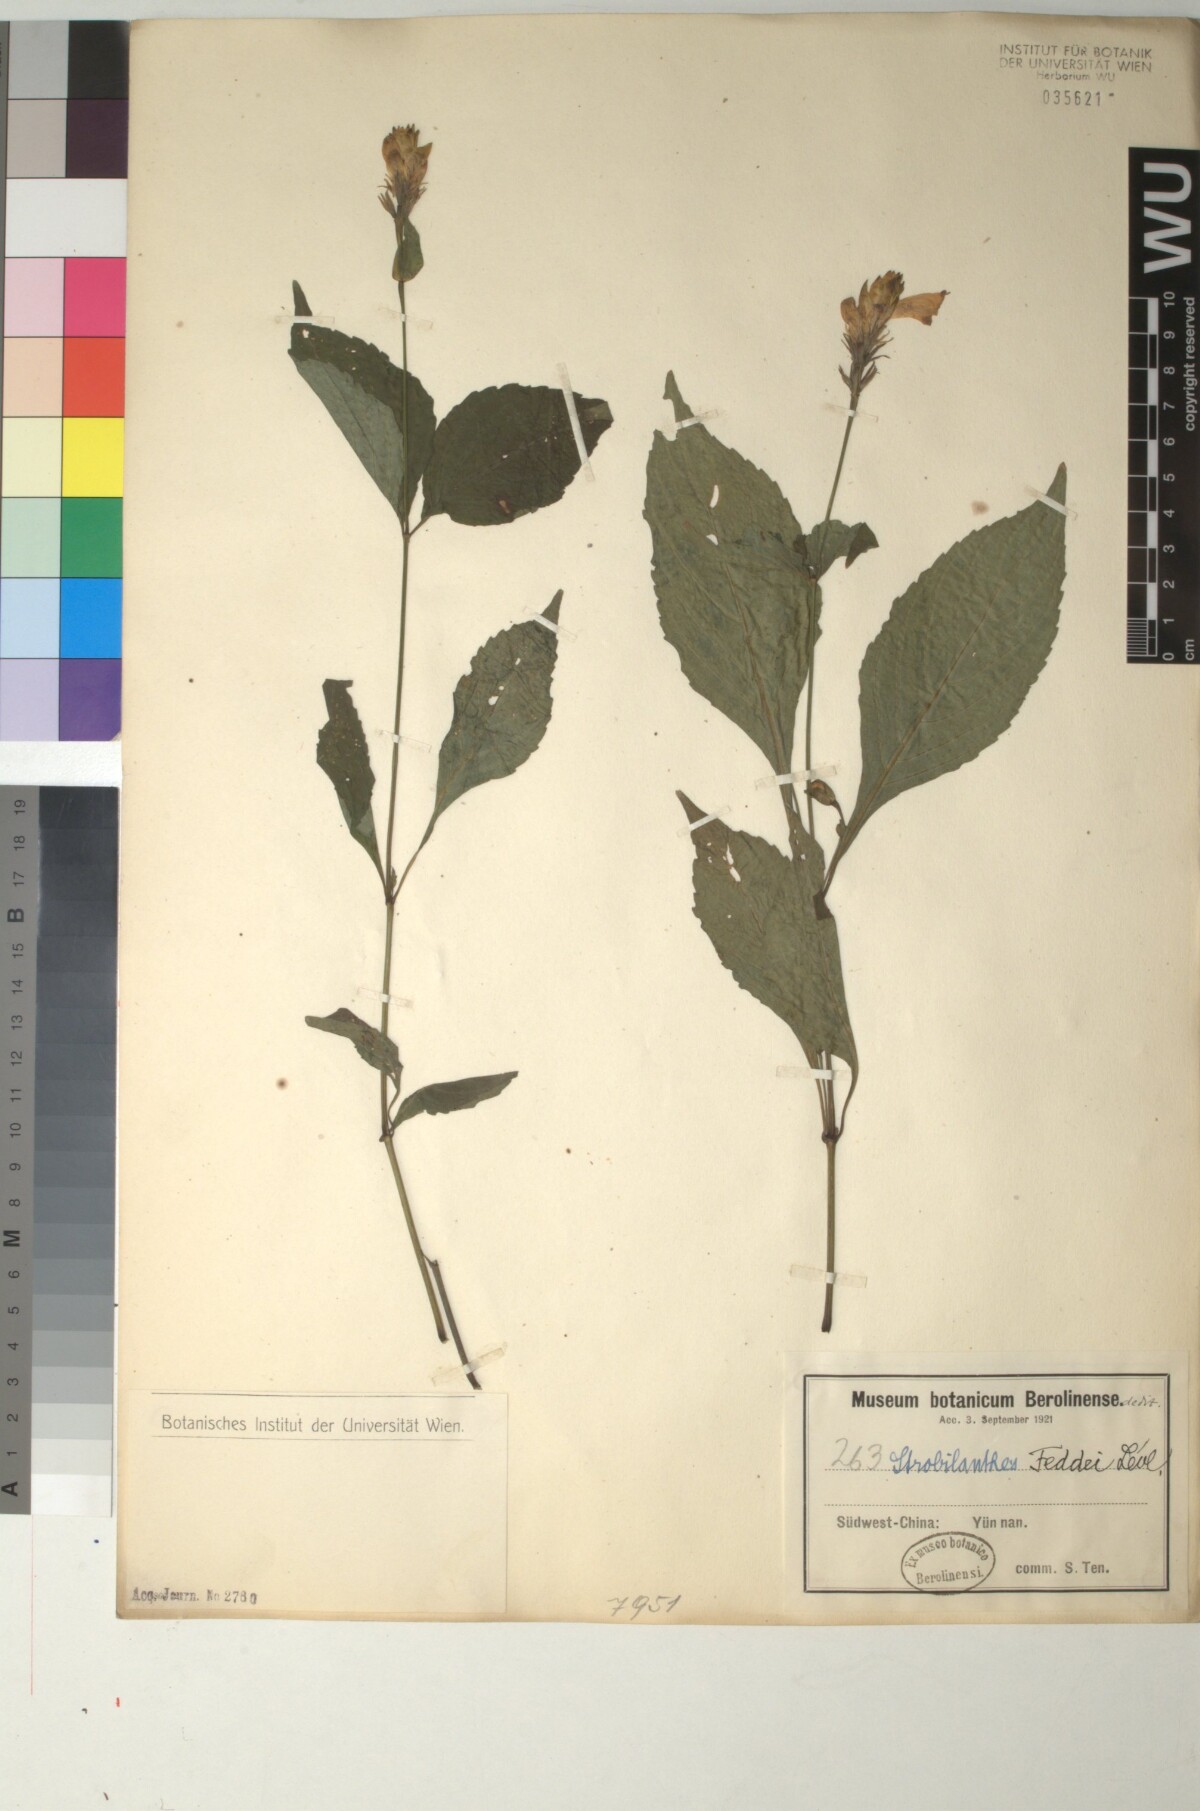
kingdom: Plantae
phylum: Tracheophyta
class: Magnoliopsida
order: Lamiales
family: Acanthaceae
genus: Strobilanthes
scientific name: Strobilanthes lamiifolia
